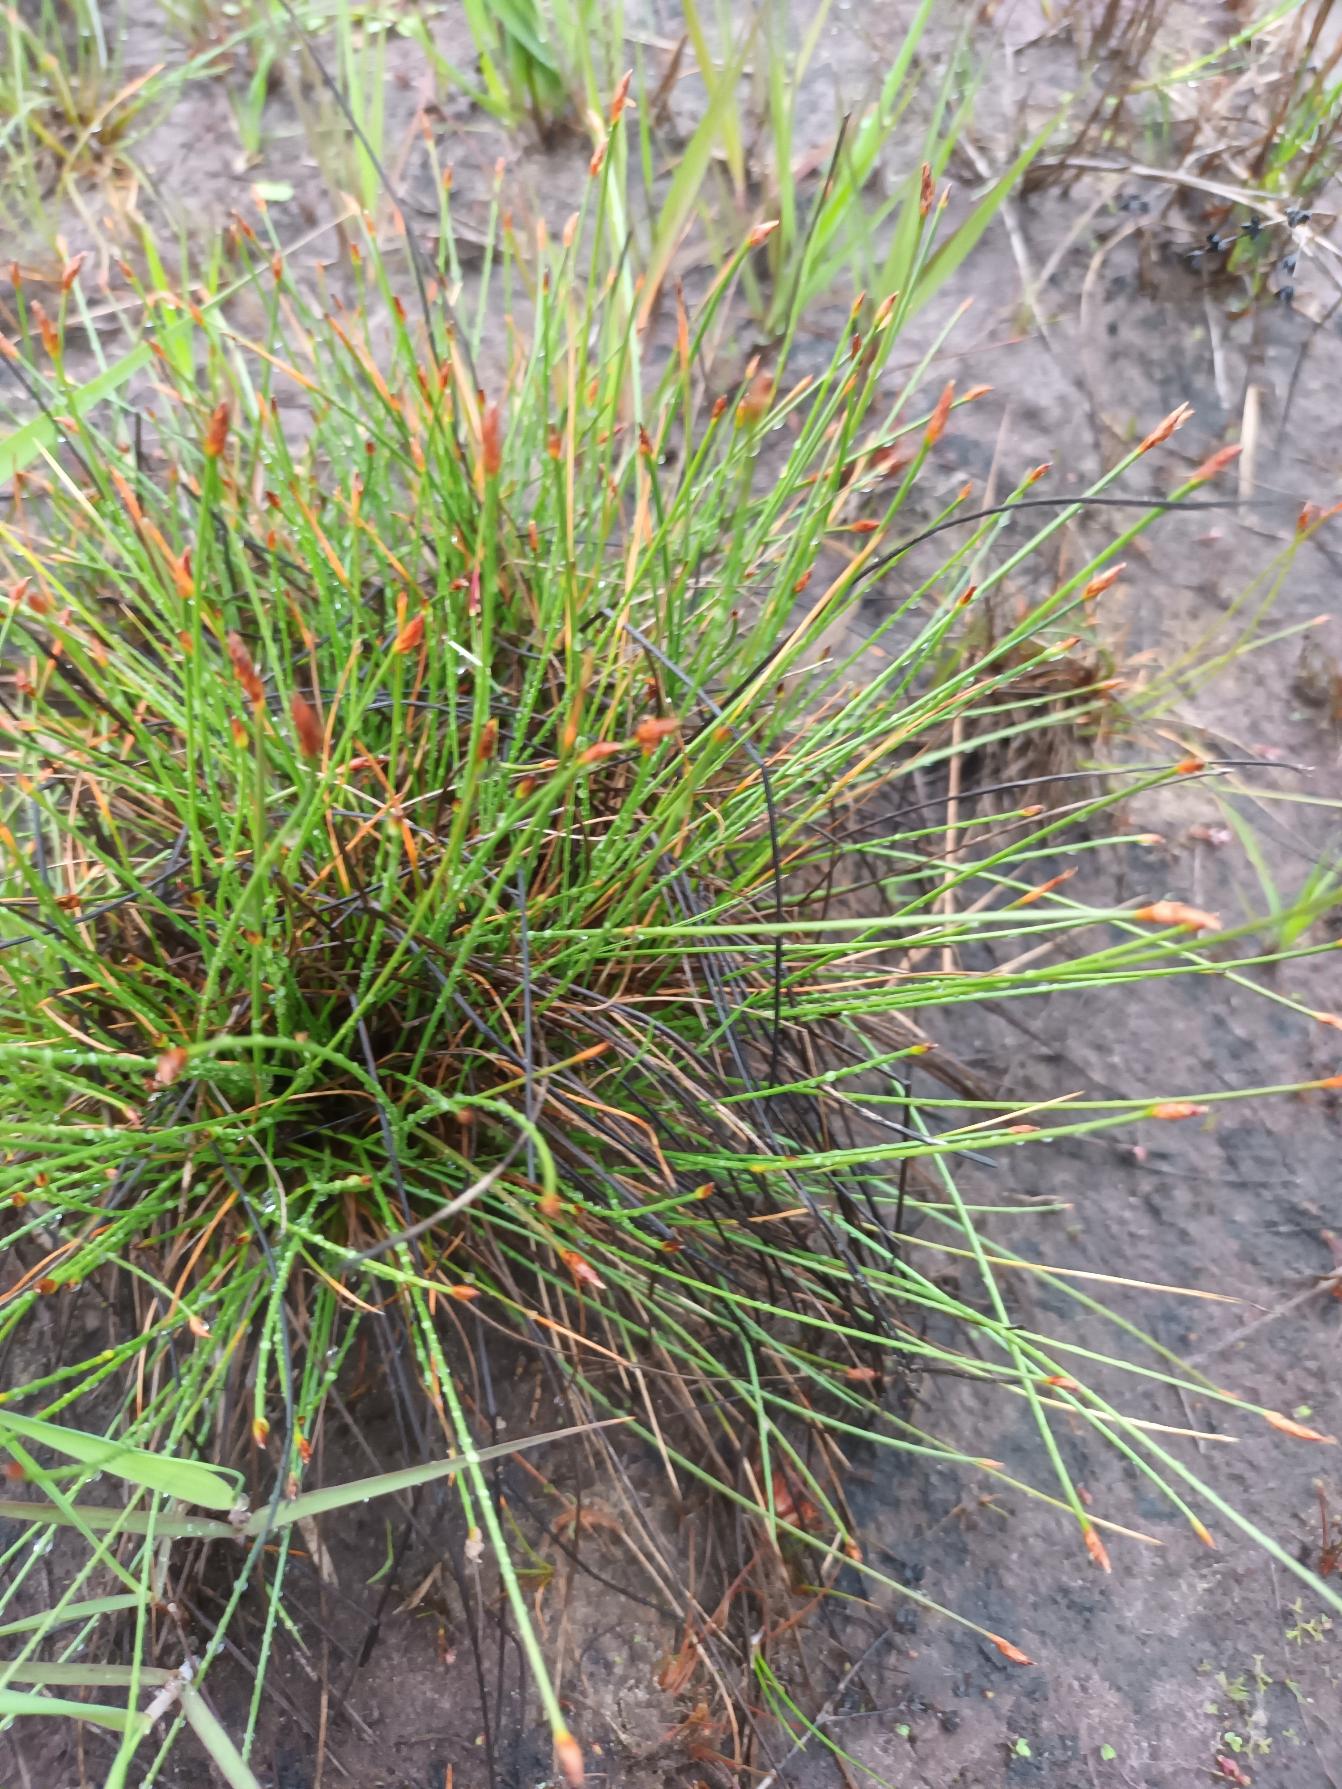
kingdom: Plantae
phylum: Tracheophyta
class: Liliopsida
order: Poales
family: Cyperaceae
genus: Eleocharis
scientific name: Eleocharis multicaulis
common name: Mangestænglet sumpstrå
